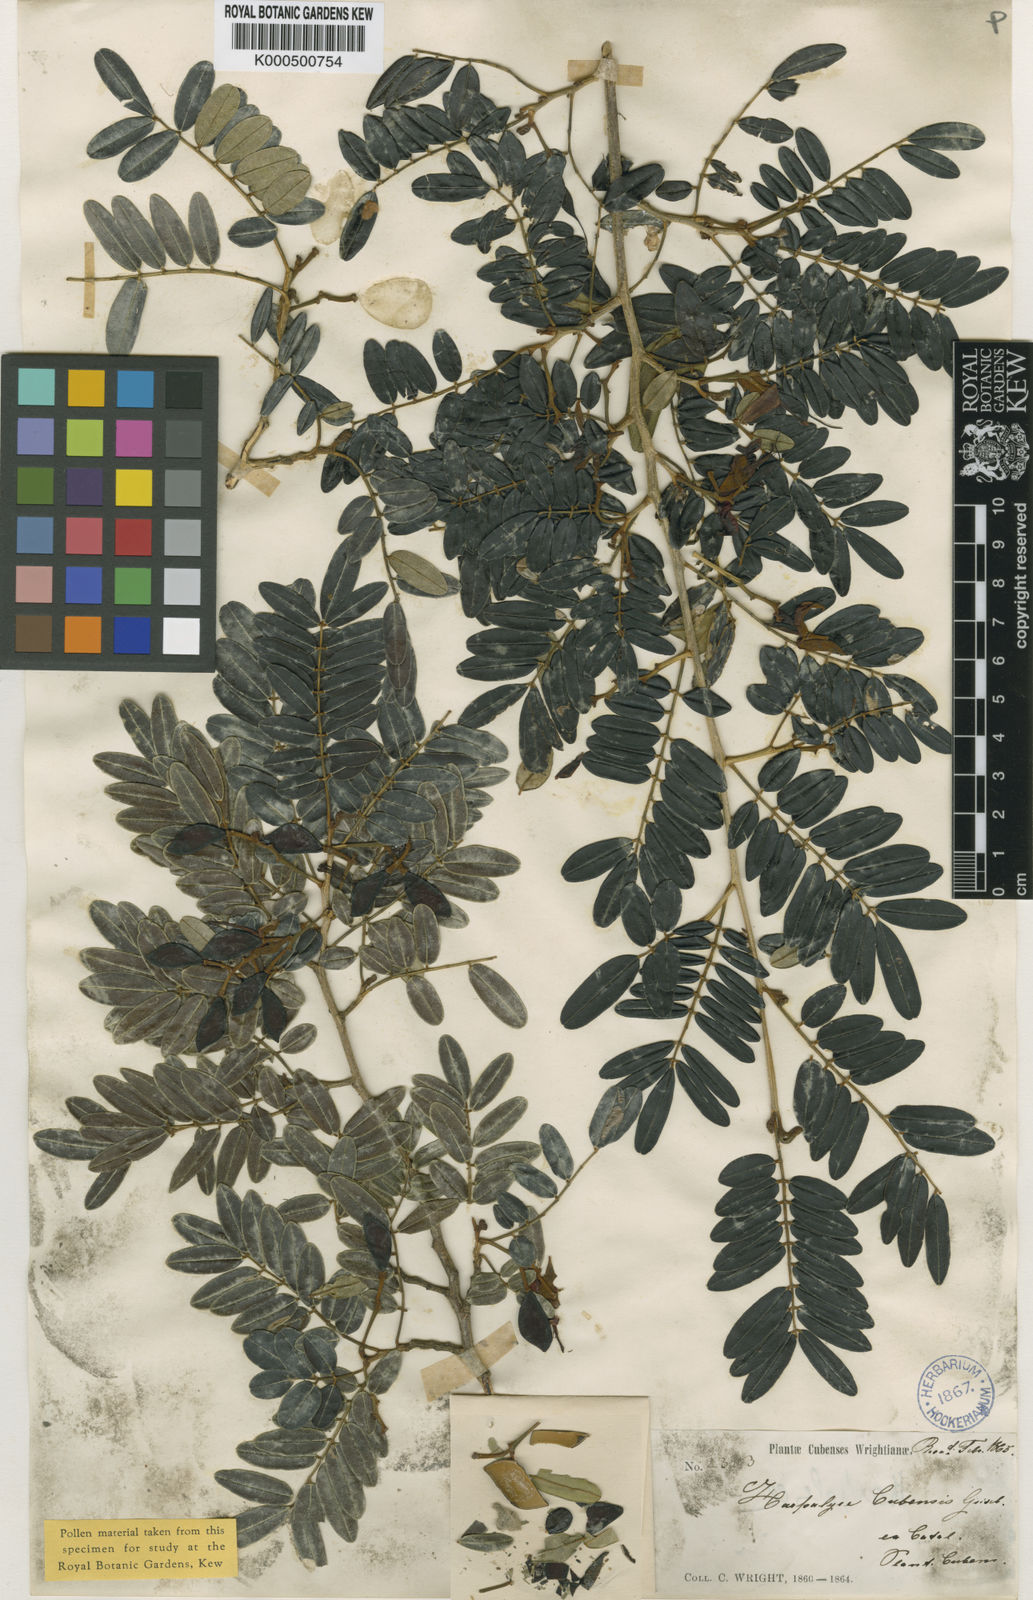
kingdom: Plantae
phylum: Tracheophyta
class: Magnoliopsida
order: Fabales
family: Fabaceae
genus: Harpalyce
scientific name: Harpalyce cubensis
